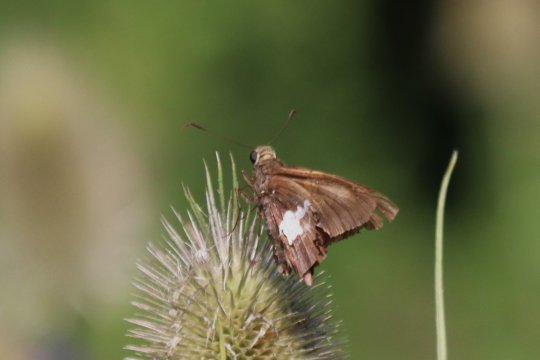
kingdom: Animalia
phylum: Arthropoda
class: Insecta
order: Lepidoptera
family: Hesperiidae
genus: Epargyreus
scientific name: Epargyreus clarus
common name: Silver-spotted Skipper
